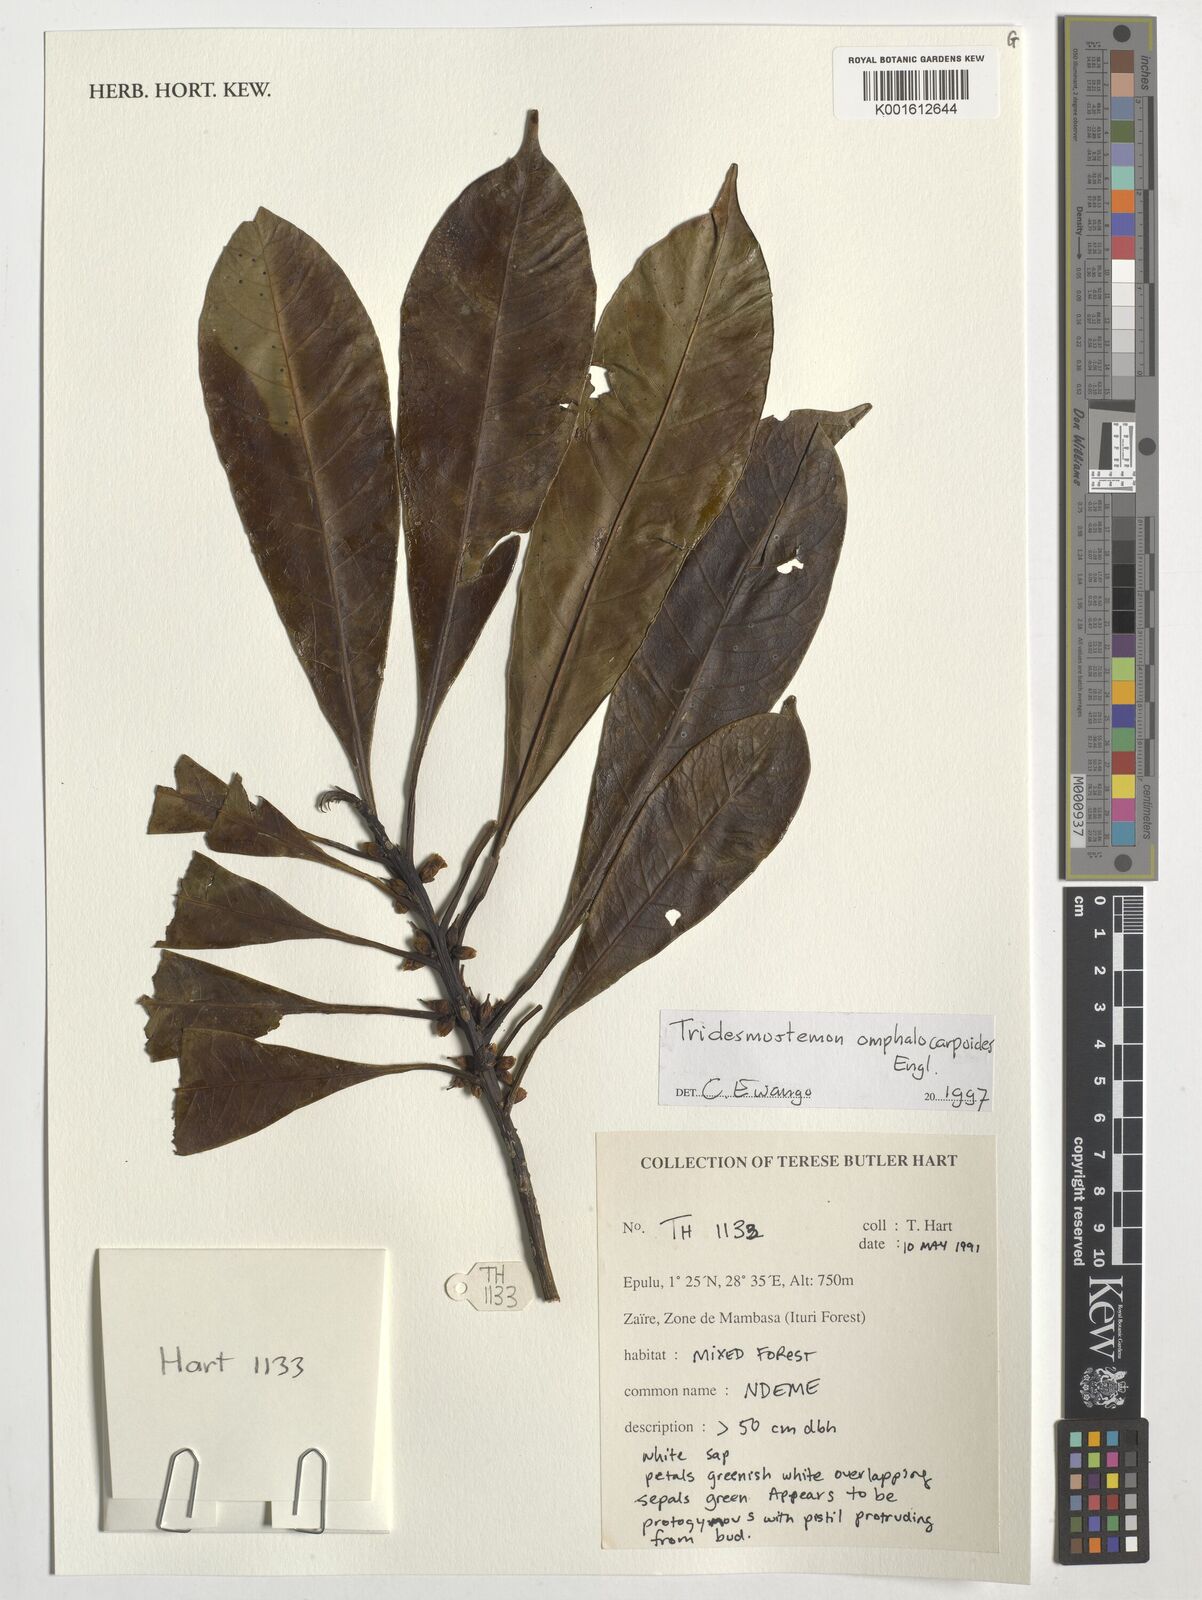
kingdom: Plantae
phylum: Tracheophyta
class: Magnoliopsida
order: Ericales
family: Sapotaceae
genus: Tridesmostemon
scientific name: Tridesmostemon omphalocarpoides
